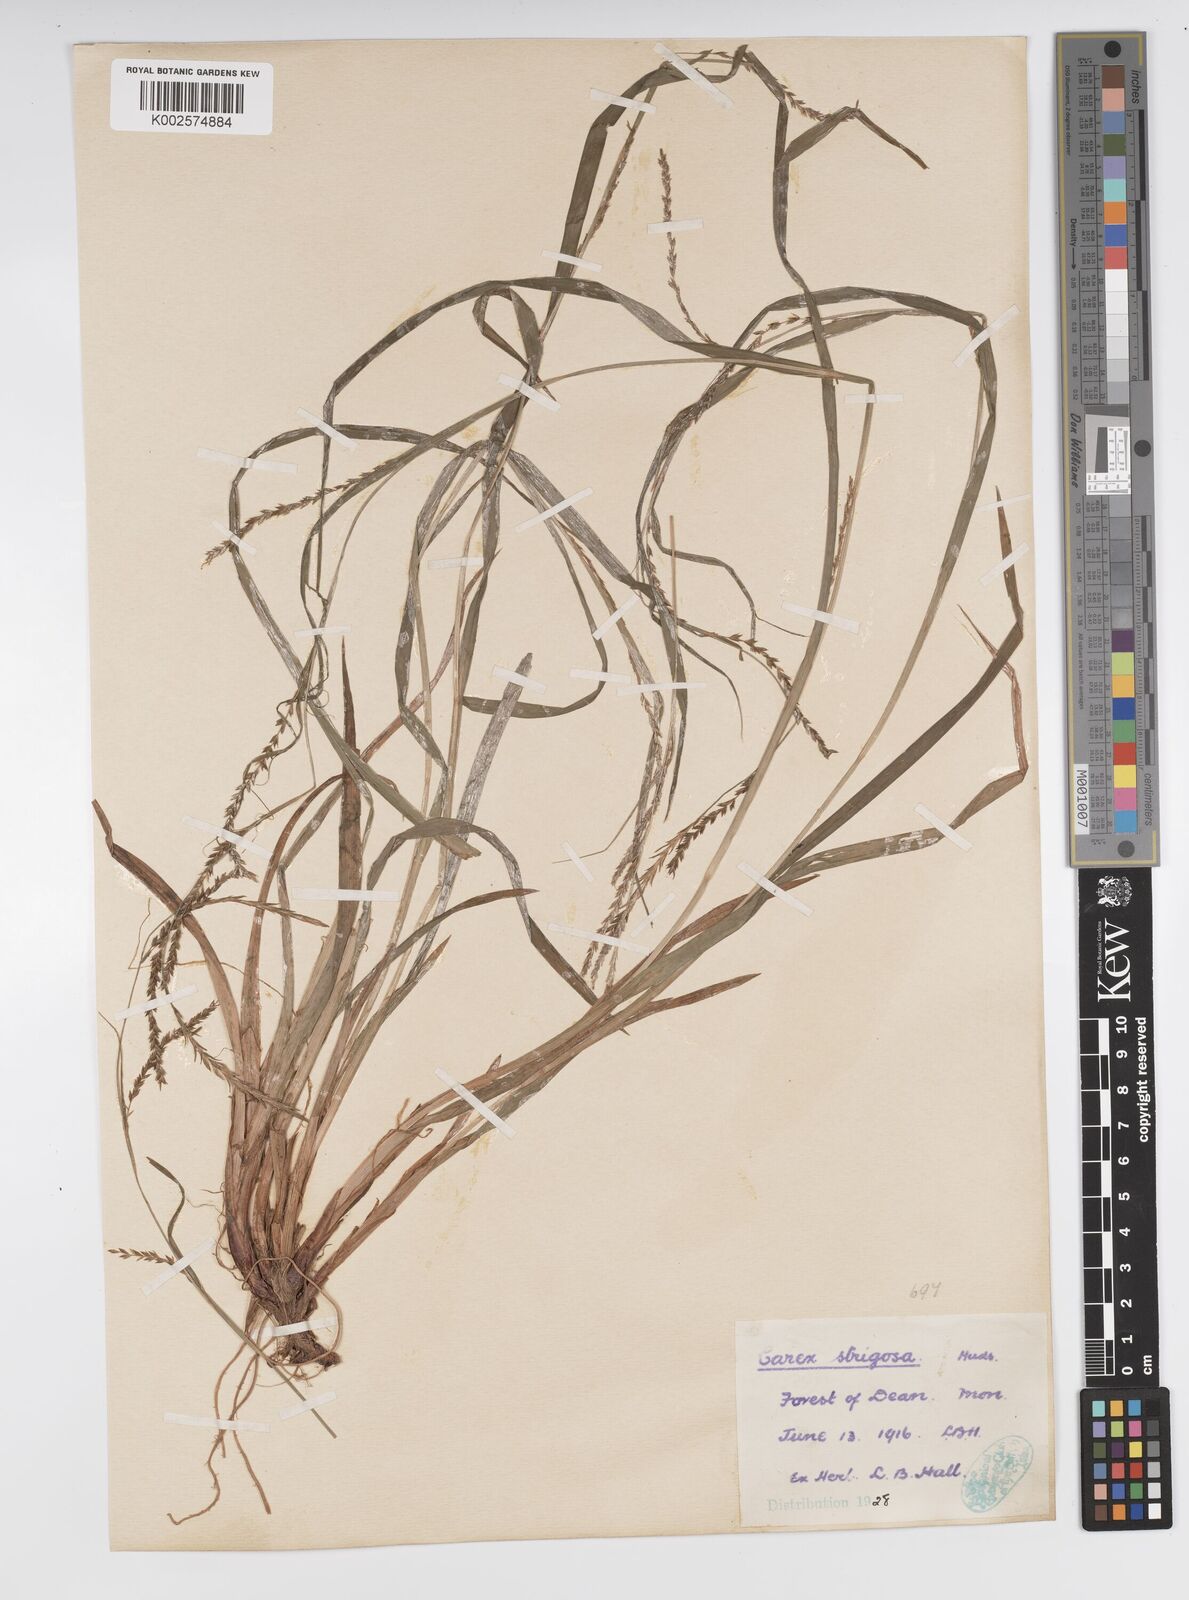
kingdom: Plantae
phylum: Tracheophyta
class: Liliopsida
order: Poales
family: Cyperaceae
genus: Carex
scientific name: Carex strigosa
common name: Thin-spiked wood-sedge
